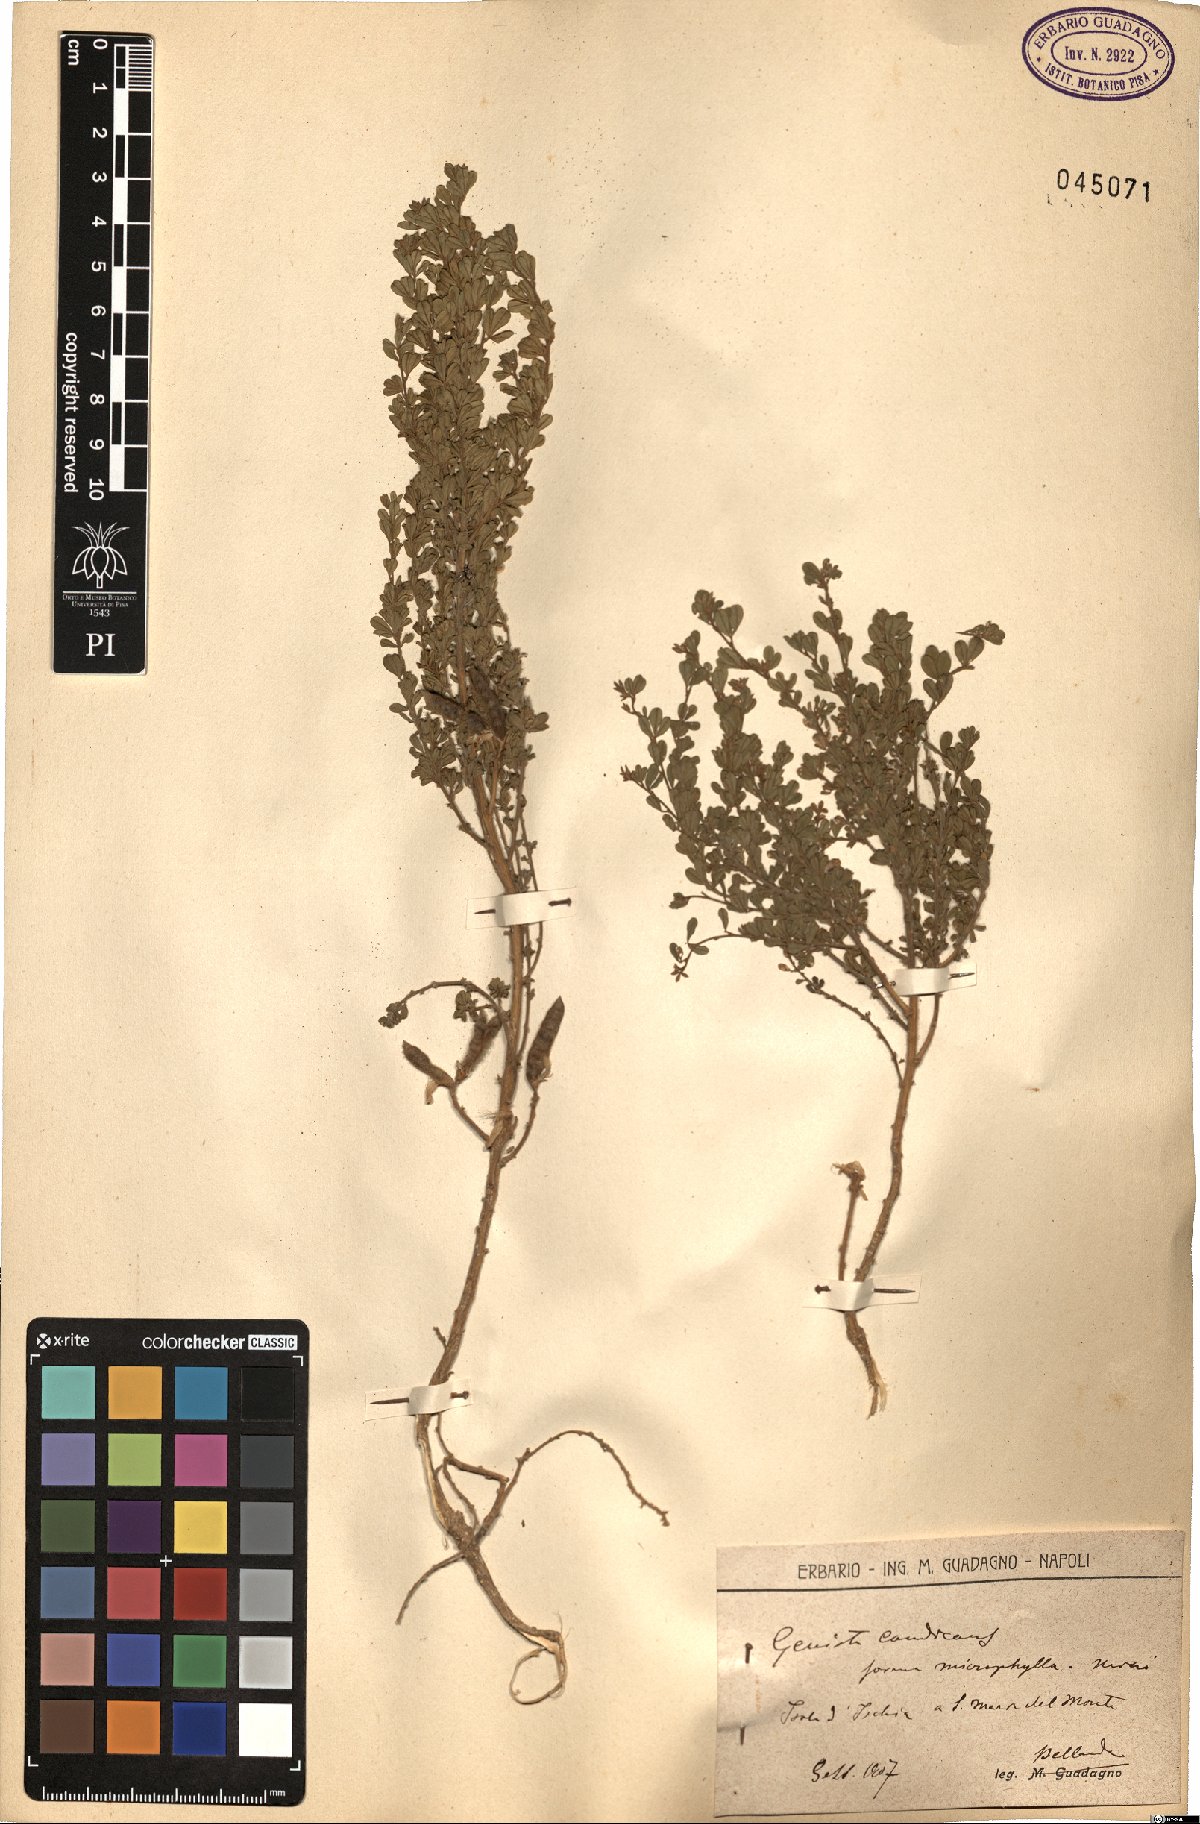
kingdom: Plantae
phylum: Tracheophyta
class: Magnoliopsida
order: Fabales
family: Fabaceae
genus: Genista
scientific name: Genista monspessulana
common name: Montpellier broom
